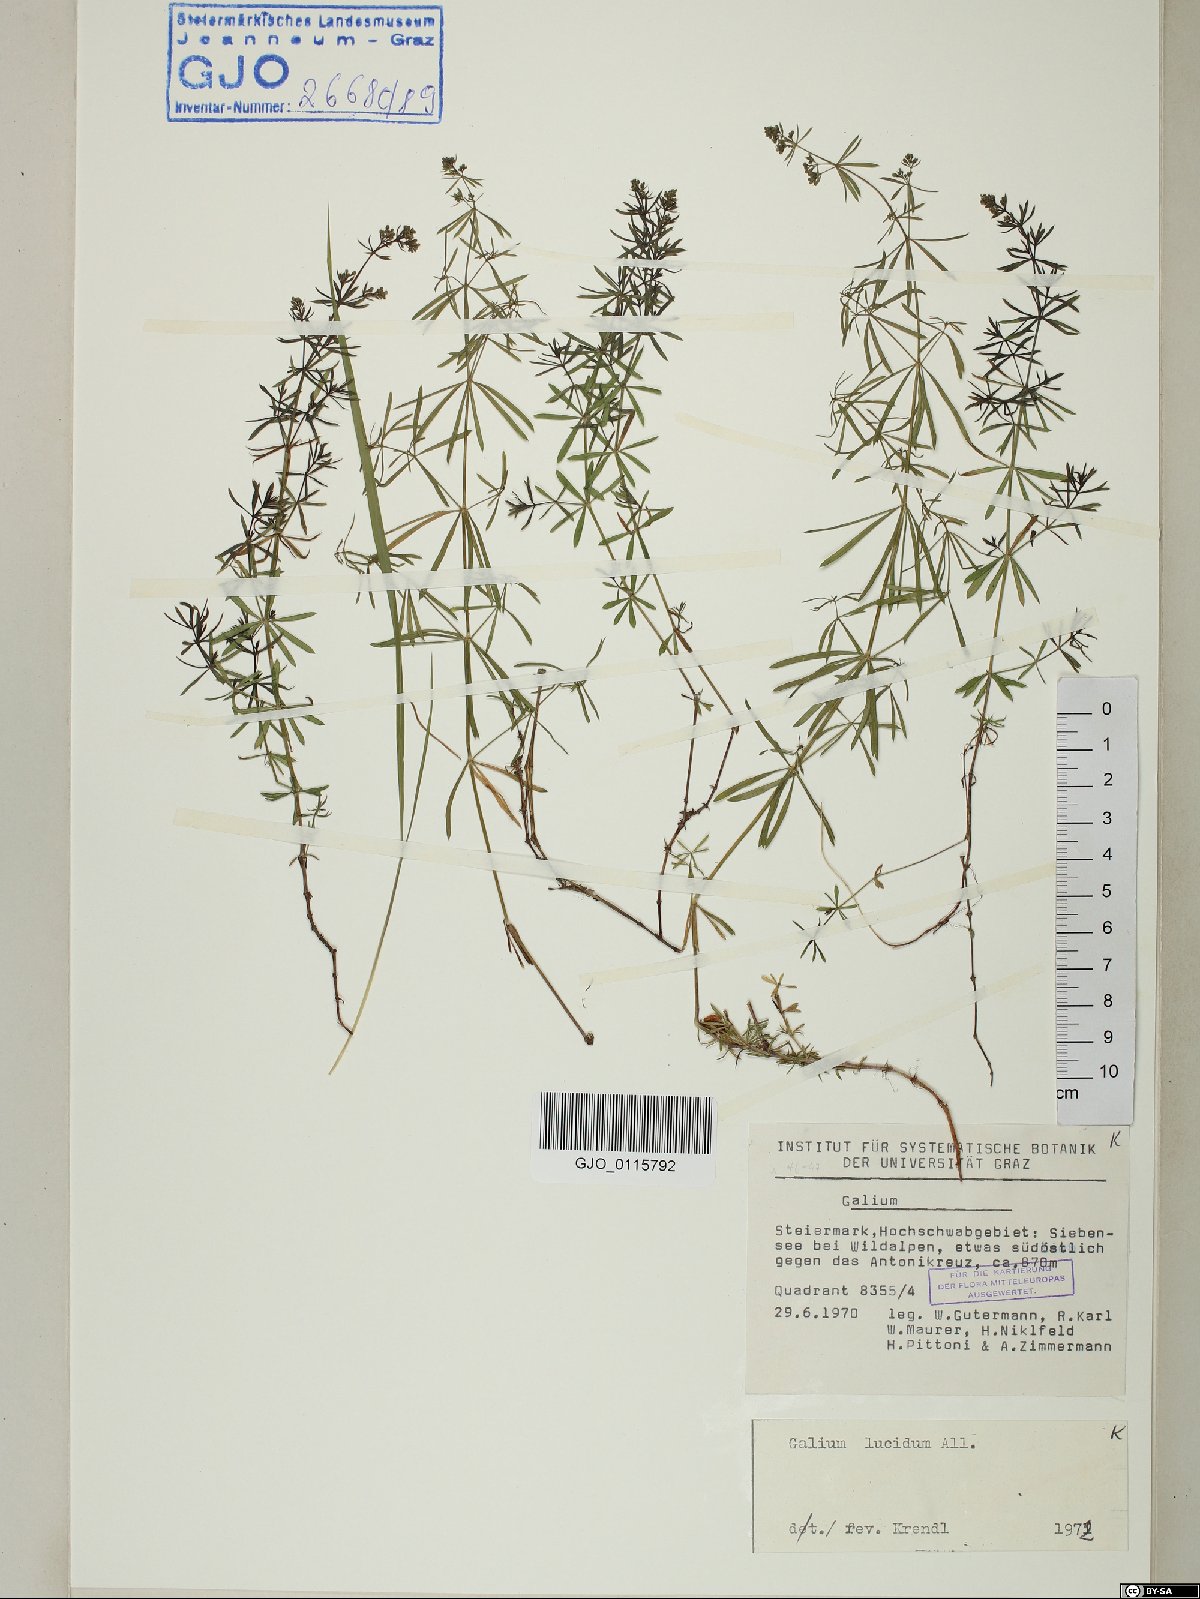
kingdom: Plantae
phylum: Tracheophyta
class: Magnoliopsida
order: Gentianales
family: Rubiaceae
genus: Galium
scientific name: Galium lucidum
